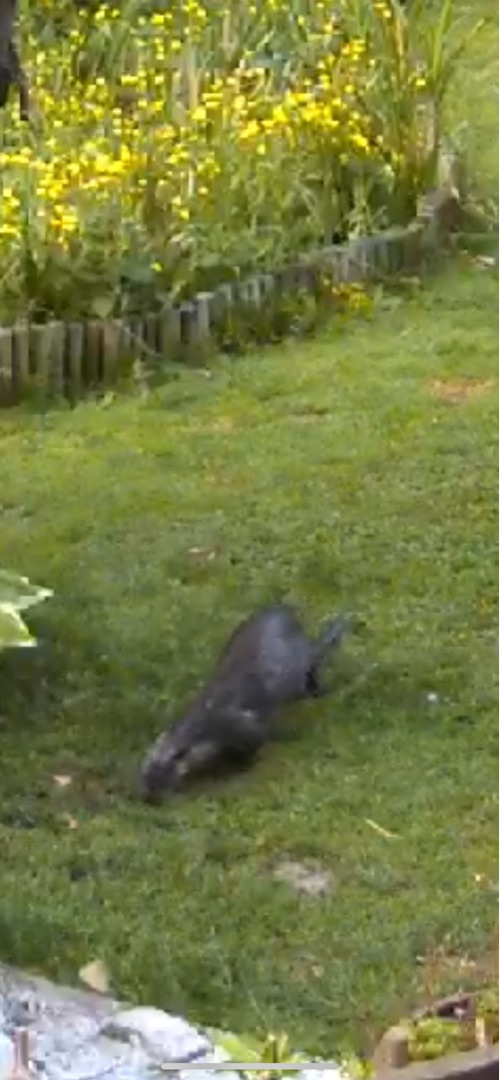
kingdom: Animalia
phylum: Chordata
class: Mammalia
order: Carnivora
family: Mustelidae
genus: Lutra
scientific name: Lutra lutra
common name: Odder
